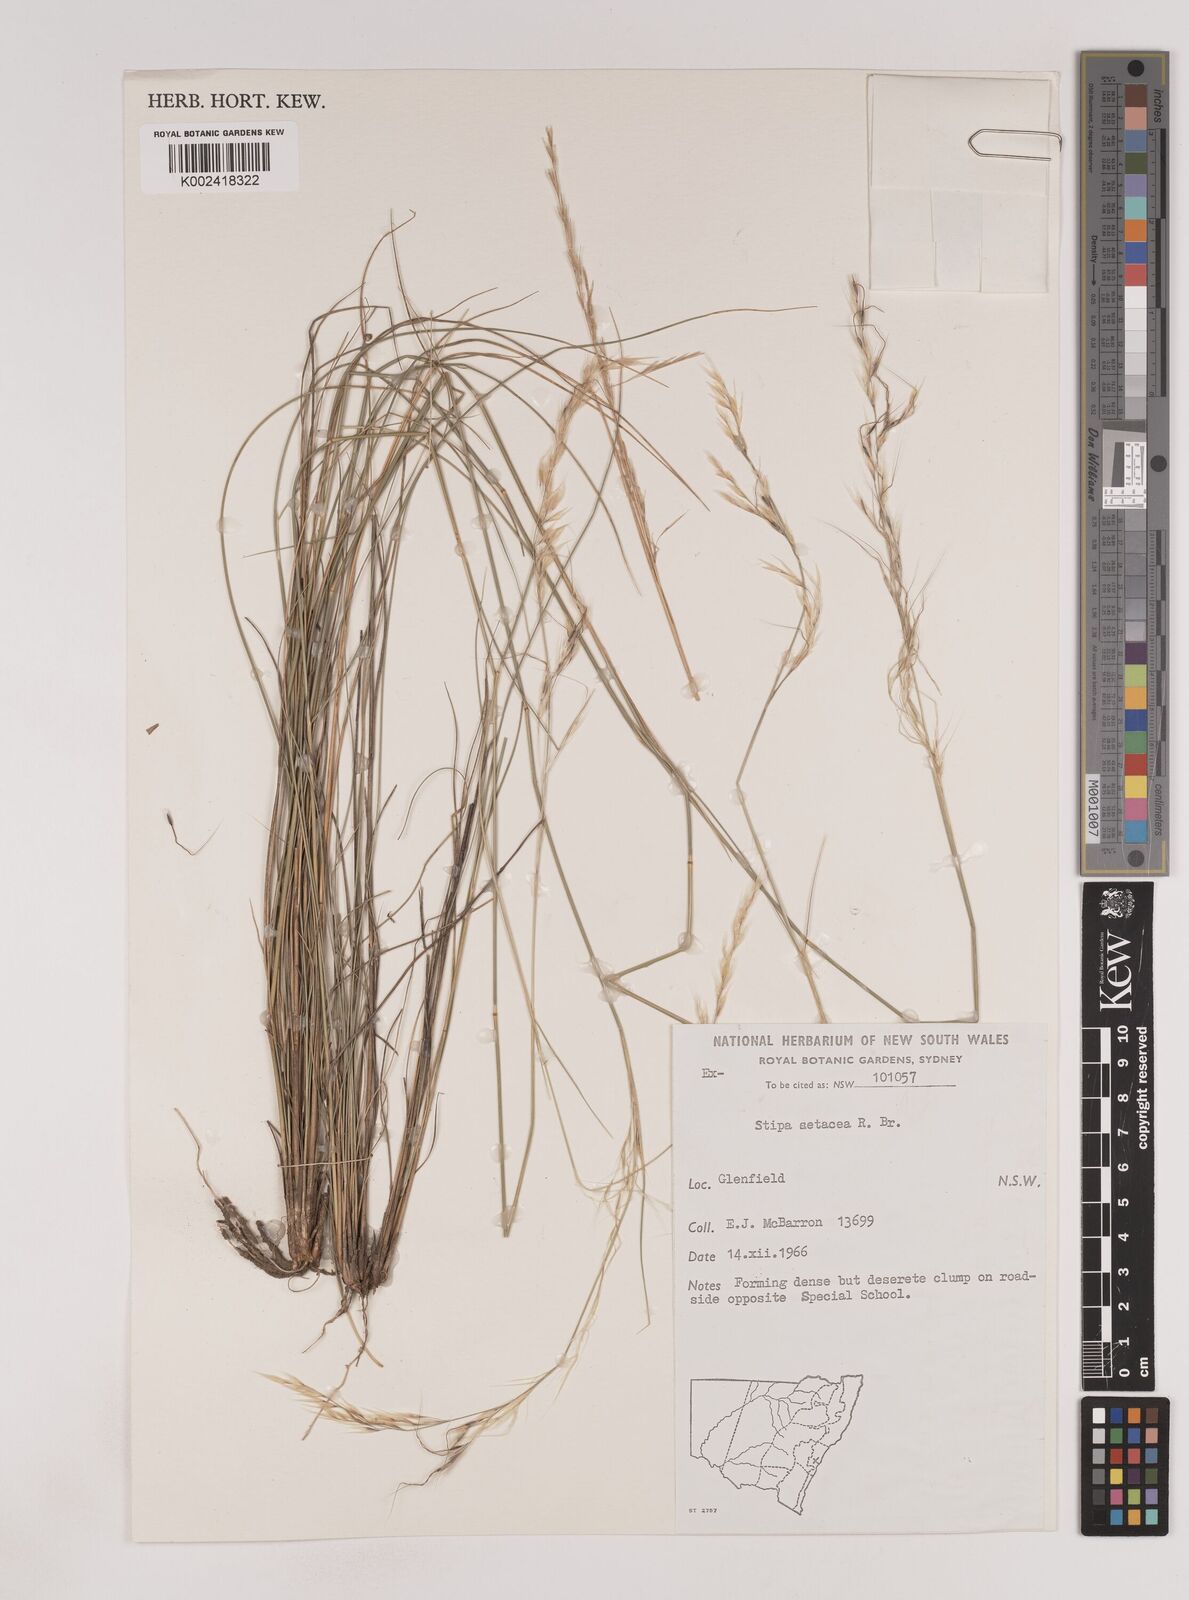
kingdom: Plantae
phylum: Tracheophyta
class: Liliopsida
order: Poales
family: Poaceae
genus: Piptochaetium
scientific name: Piptochaetium
